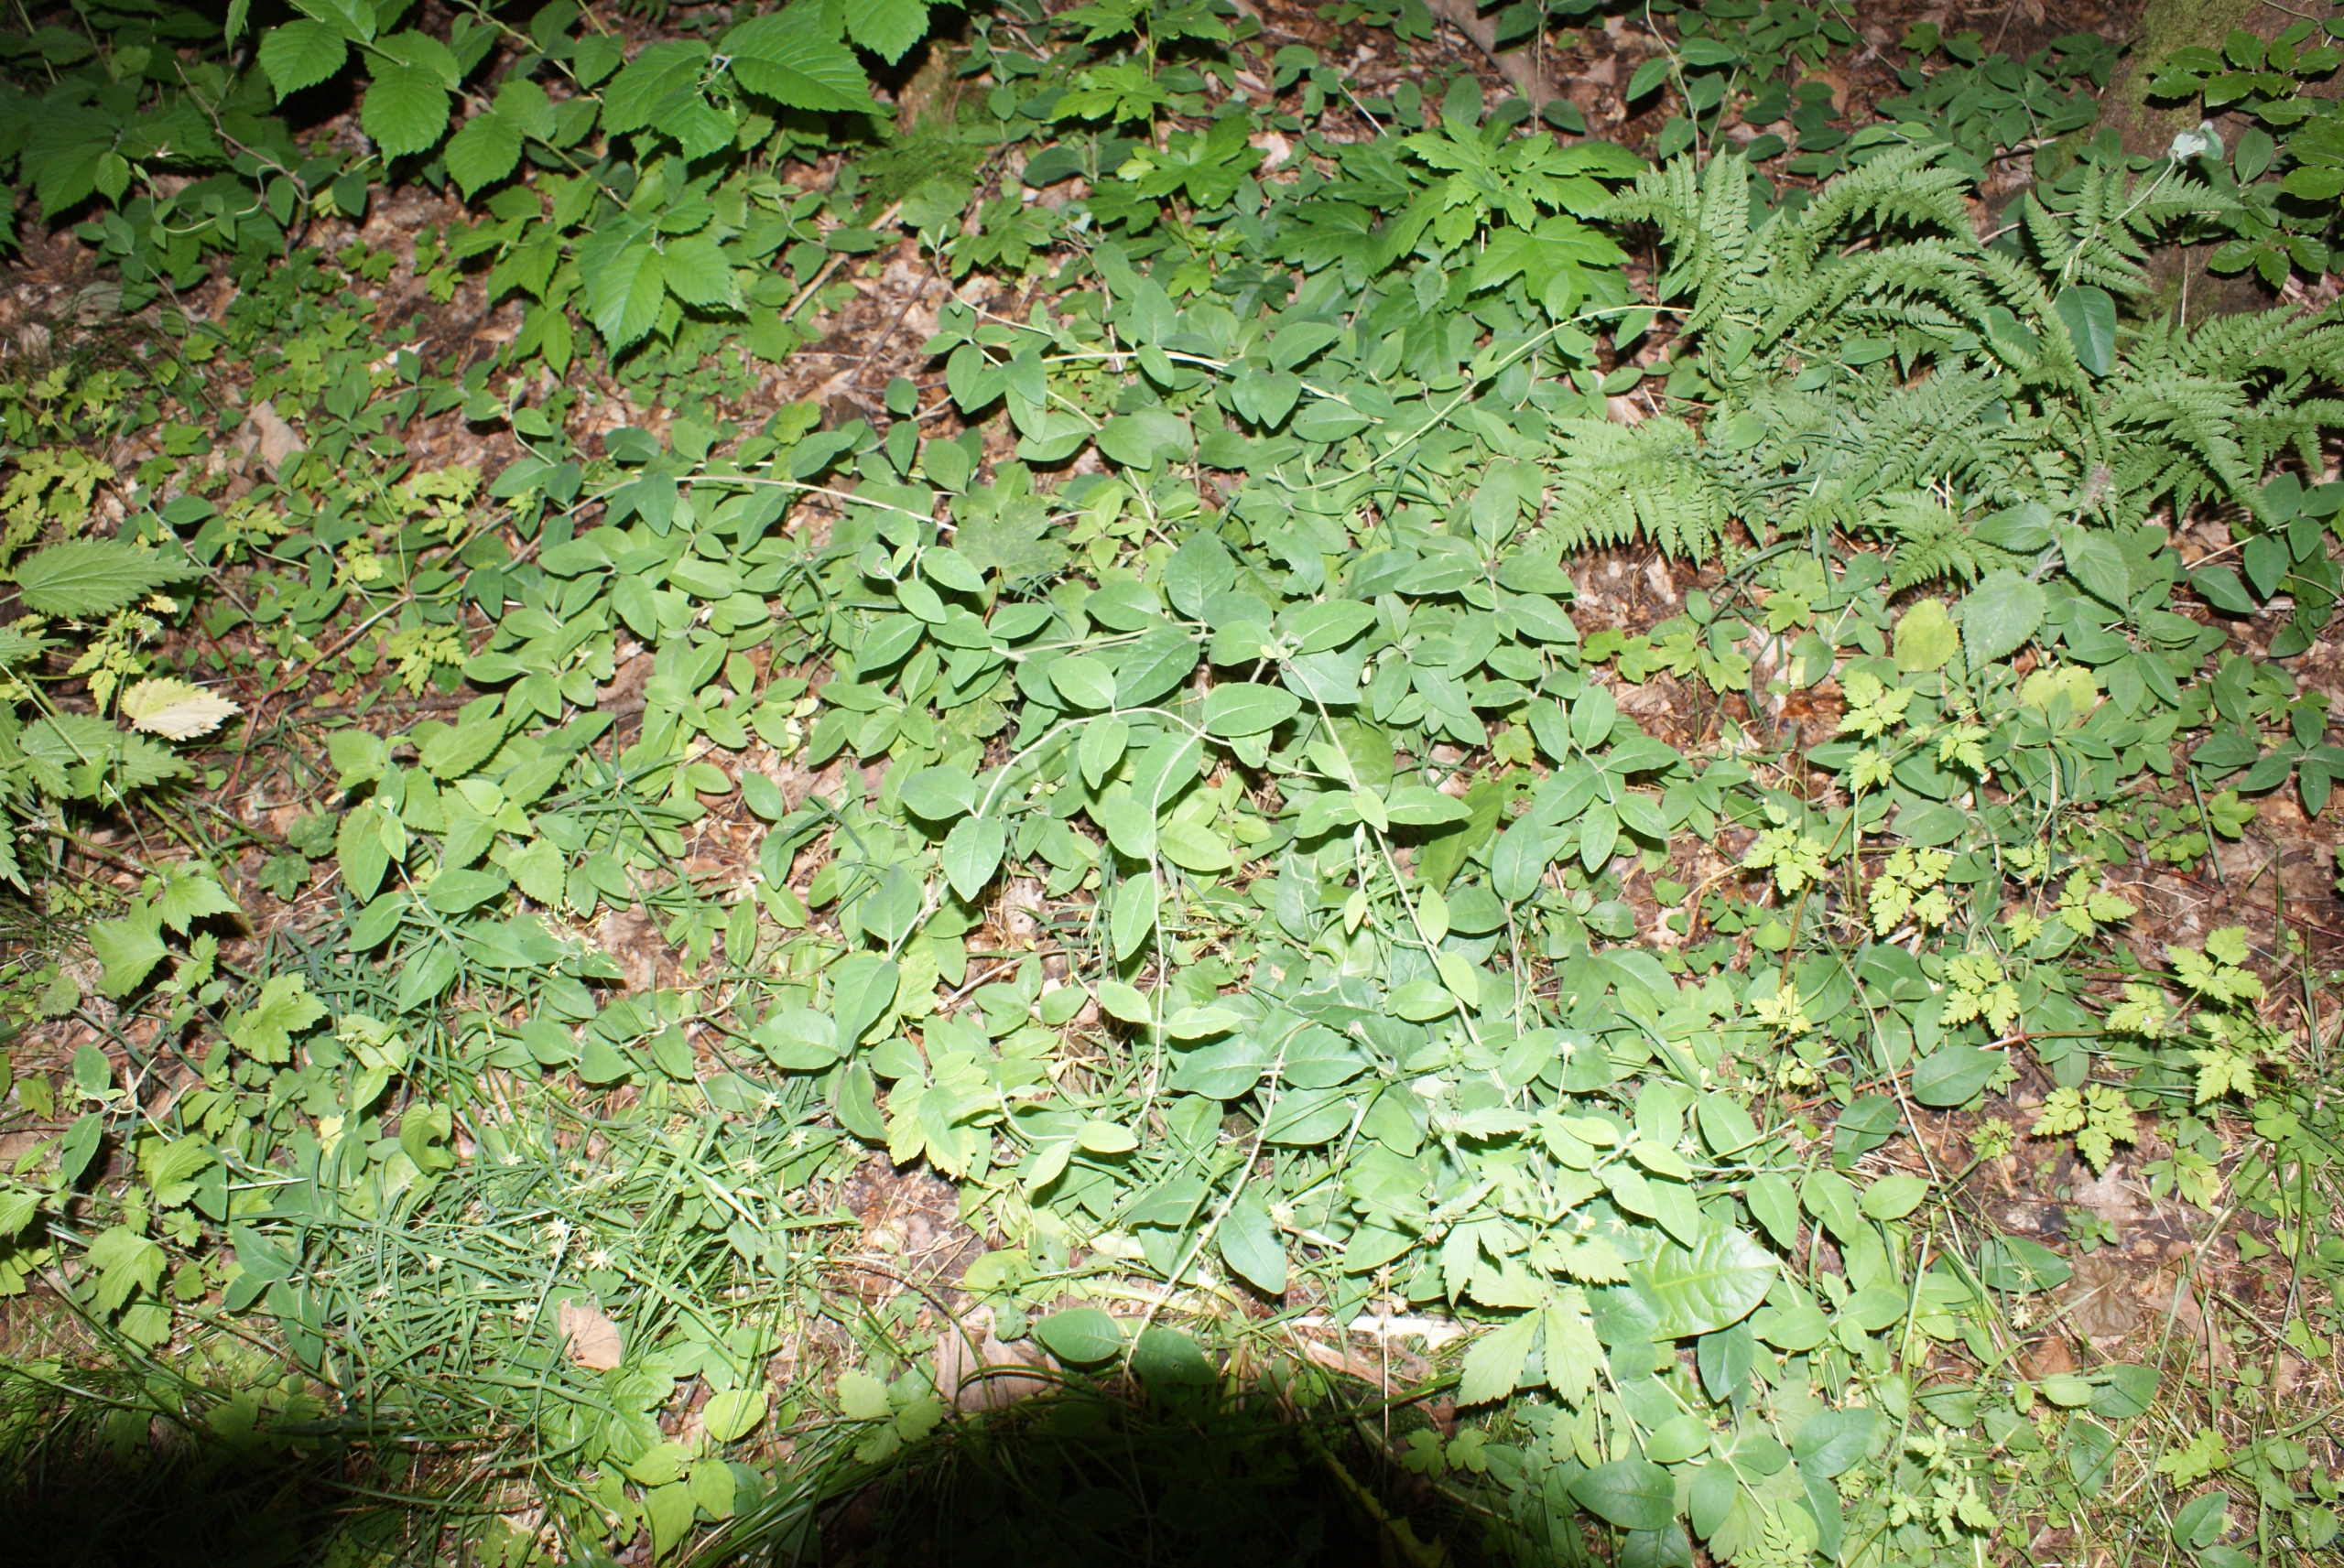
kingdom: Plantae
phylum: Tracheophyta
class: Magnoliopsida
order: Dipsacales
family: Caprifoliaceae
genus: Lonicera
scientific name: Lonicera periclymenum
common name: Almindelig gedeblad
